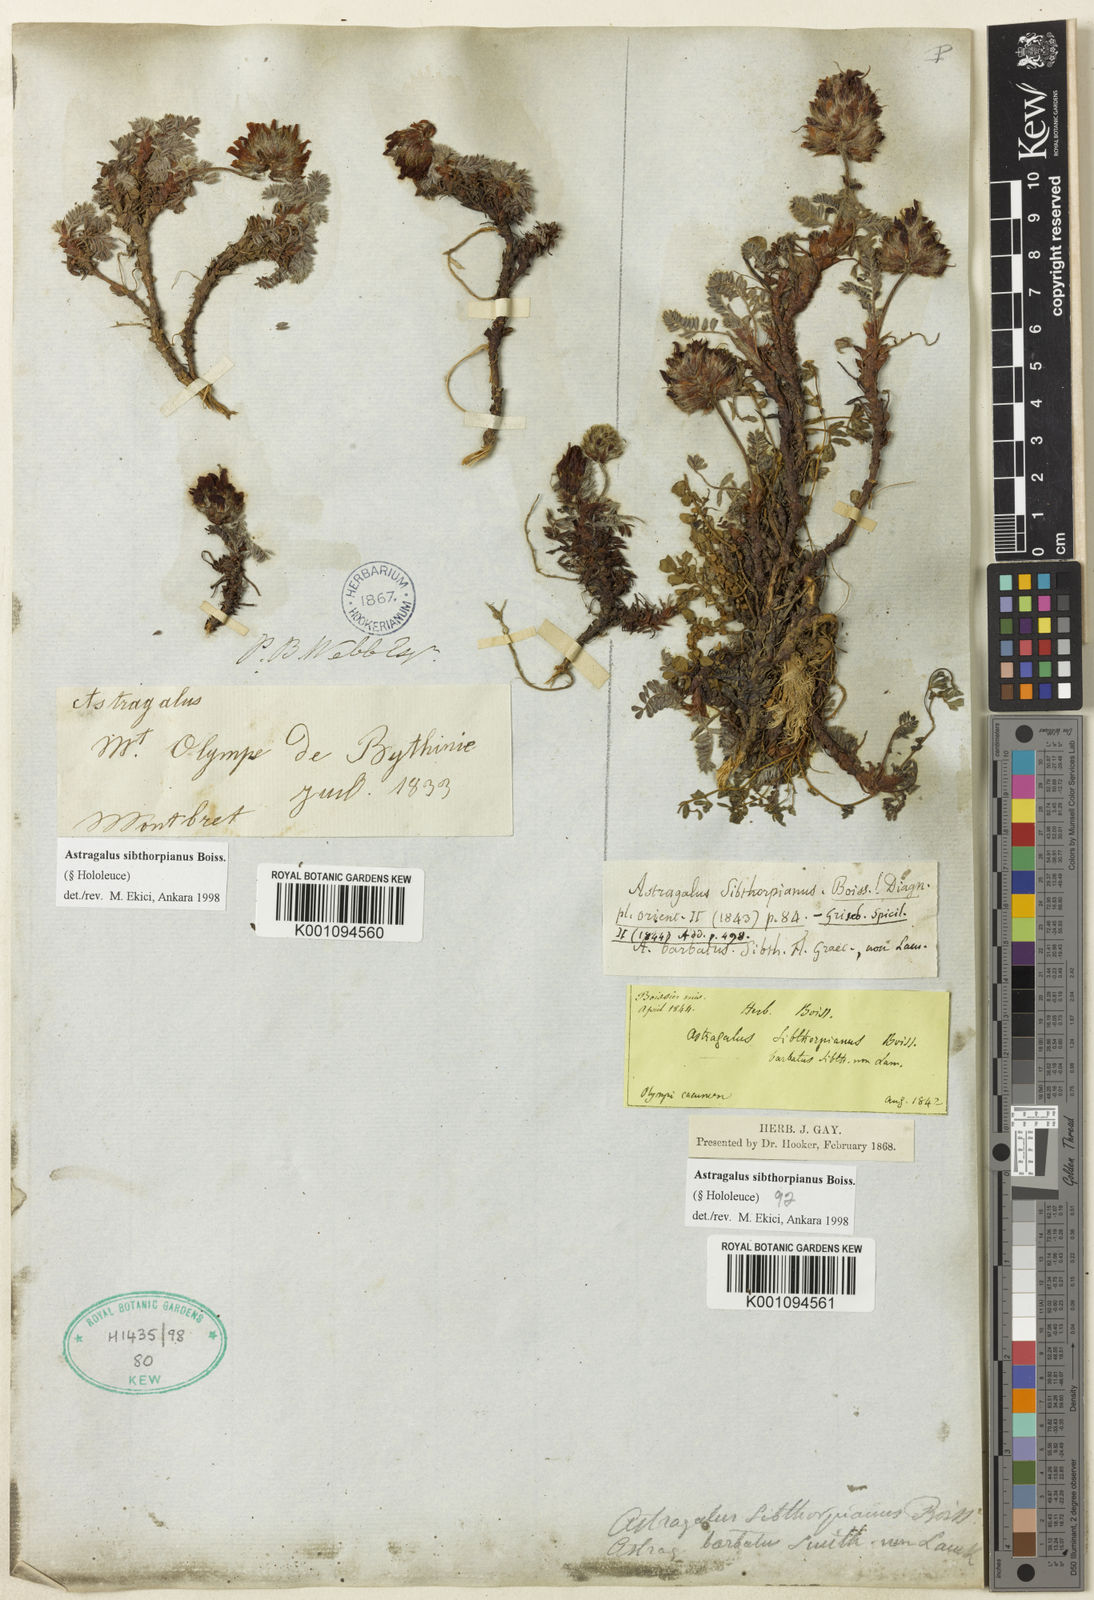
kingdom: Plantae
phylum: Tracheophyta
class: Magnoliopsida
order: Fabales
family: Fabaceae
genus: Astragalus
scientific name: Astragalus
